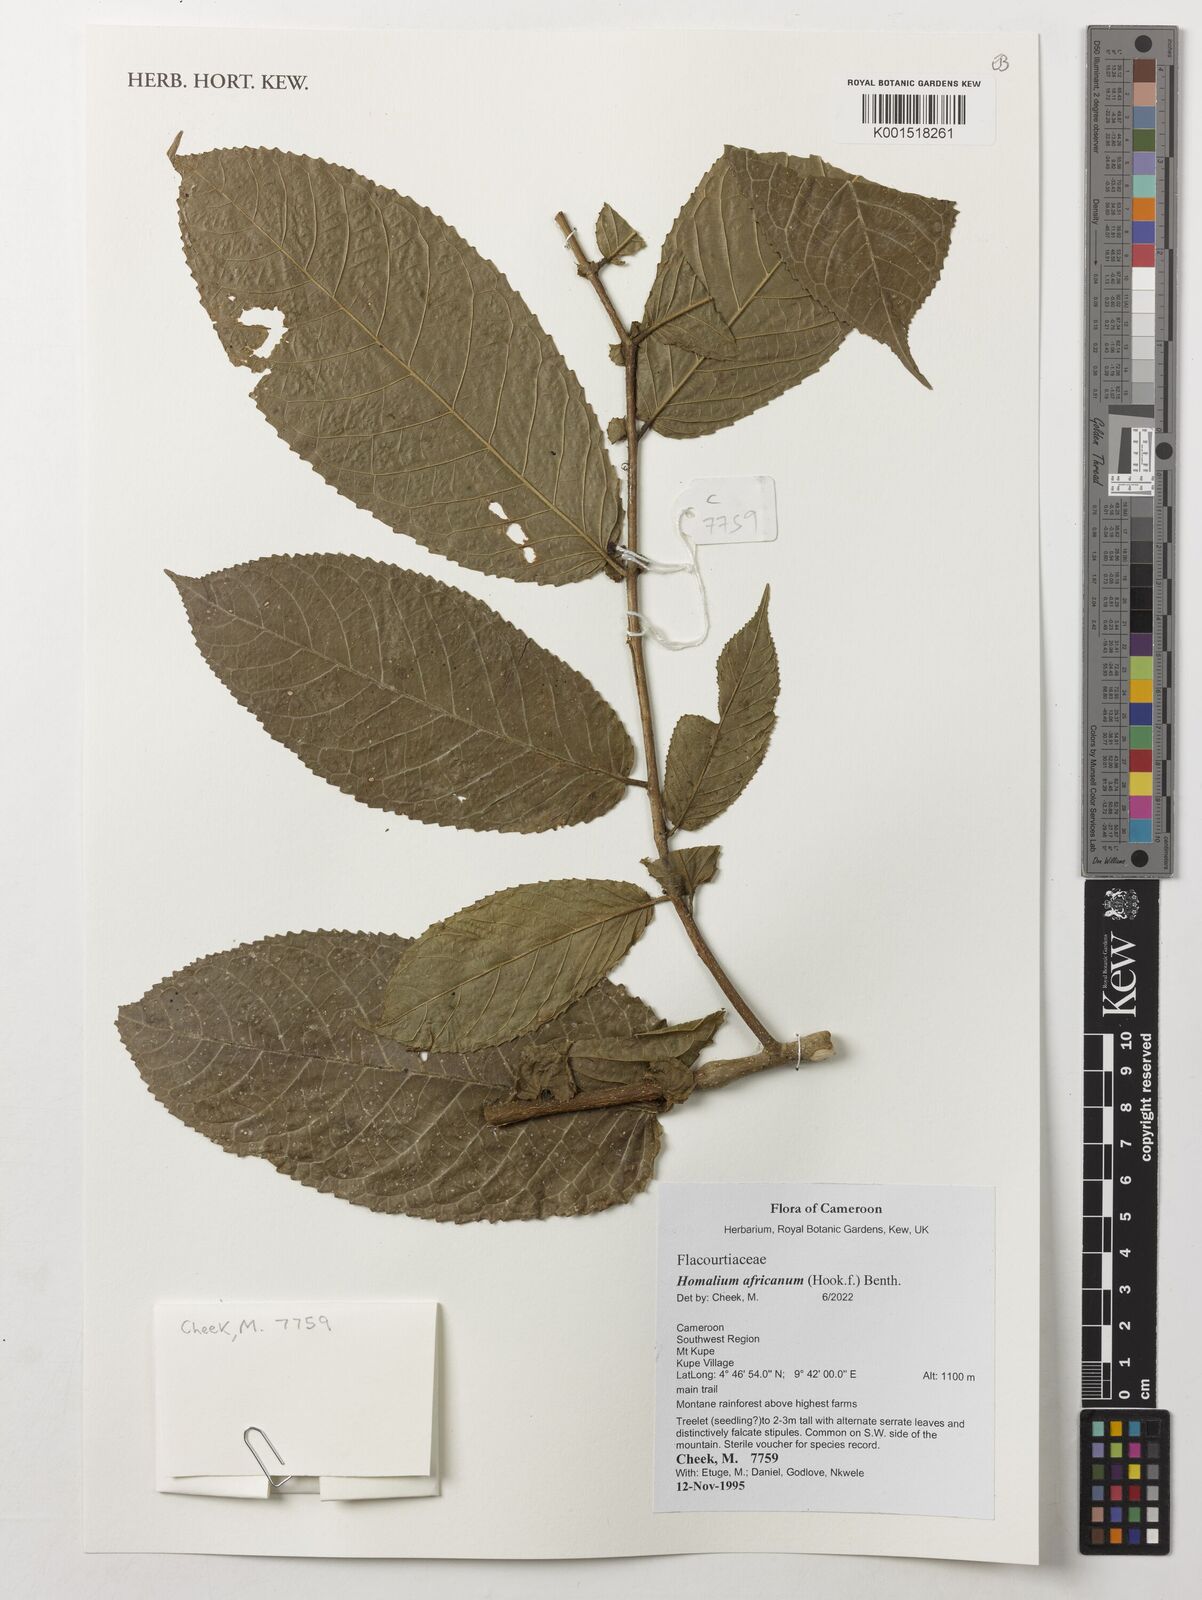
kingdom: Plantae
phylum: Tracheophyta
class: Magnoliopsida
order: Malpighiales
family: Salicaceae
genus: Homalium
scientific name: Homalium africanum
